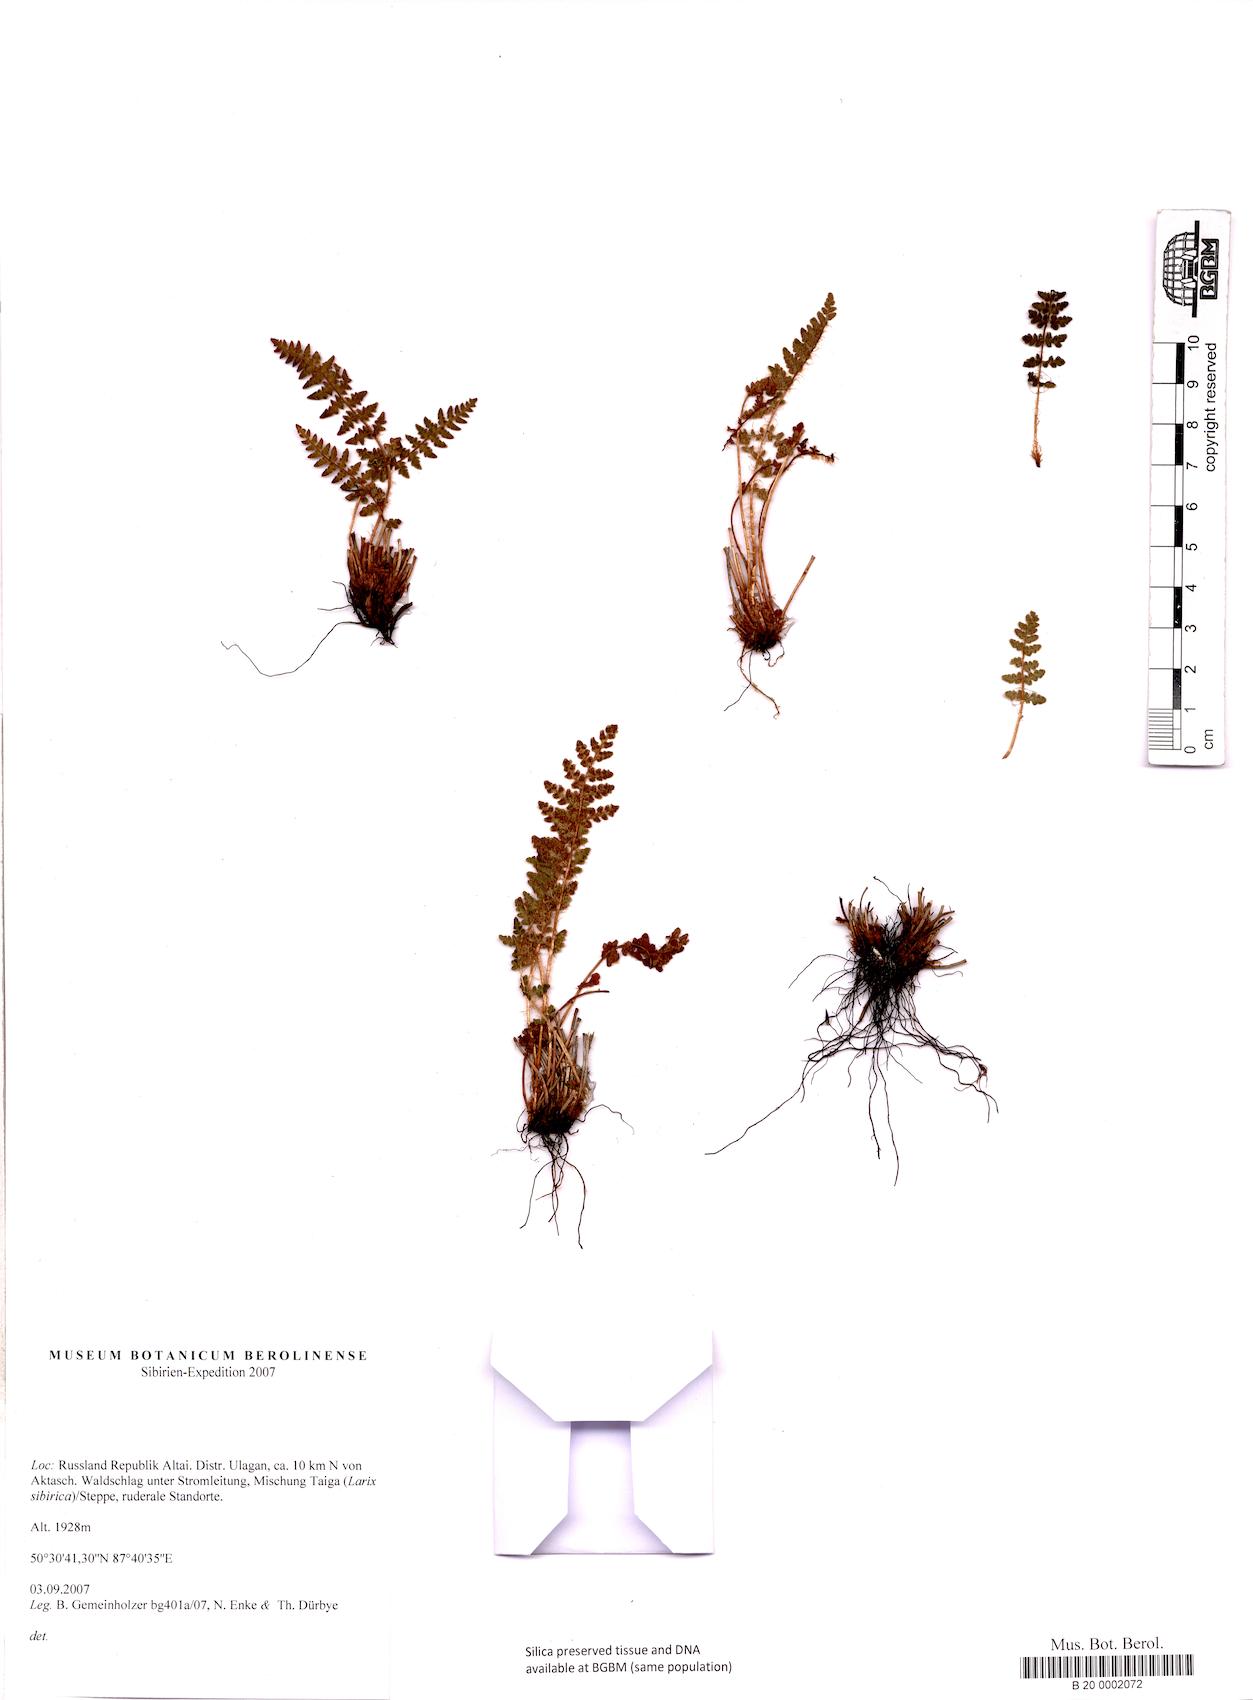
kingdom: Plantae
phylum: Tracheophyta
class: Polypodiopsida
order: Polypodiales
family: Woodsiaceae
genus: Woodsia
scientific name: Woodsia ilvensis
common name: Fragrant woodsia
